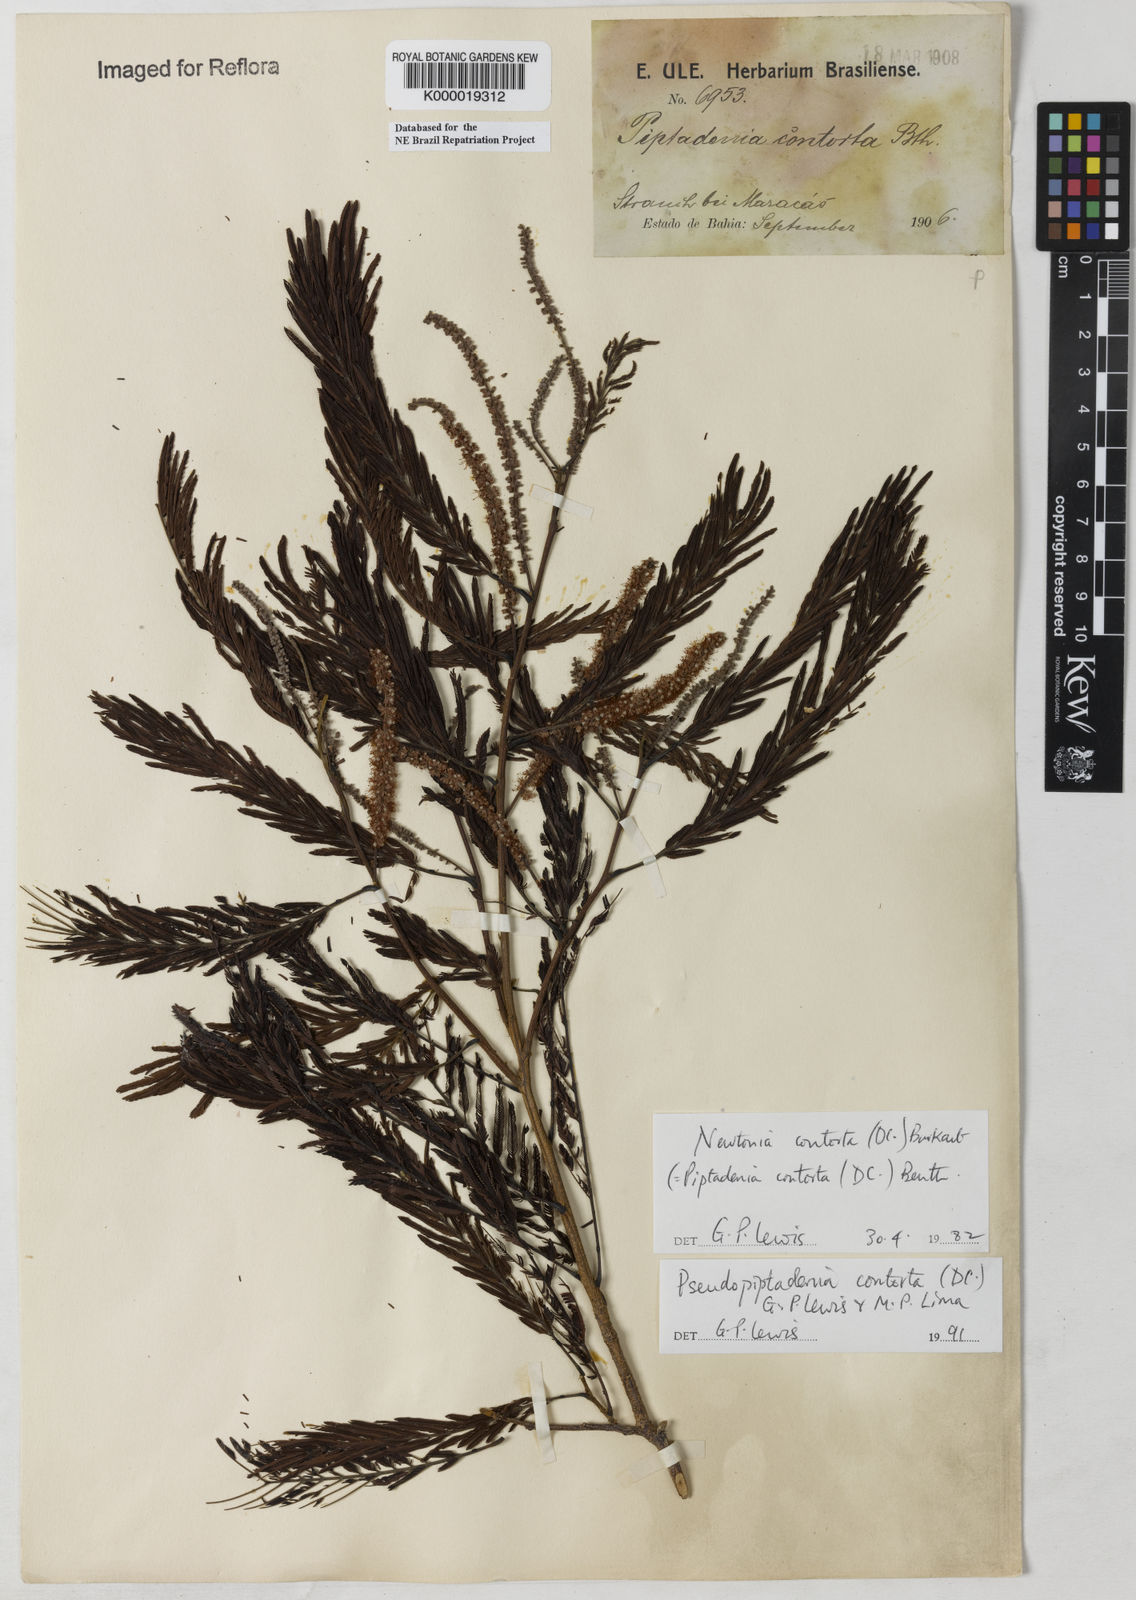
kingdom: Plantae
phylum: Tracheophyta
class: Magnoliopsida
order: Fabales
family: Fabaceae
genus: Pseudopiptadenia
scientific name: Pseudopiptadenia contorta
